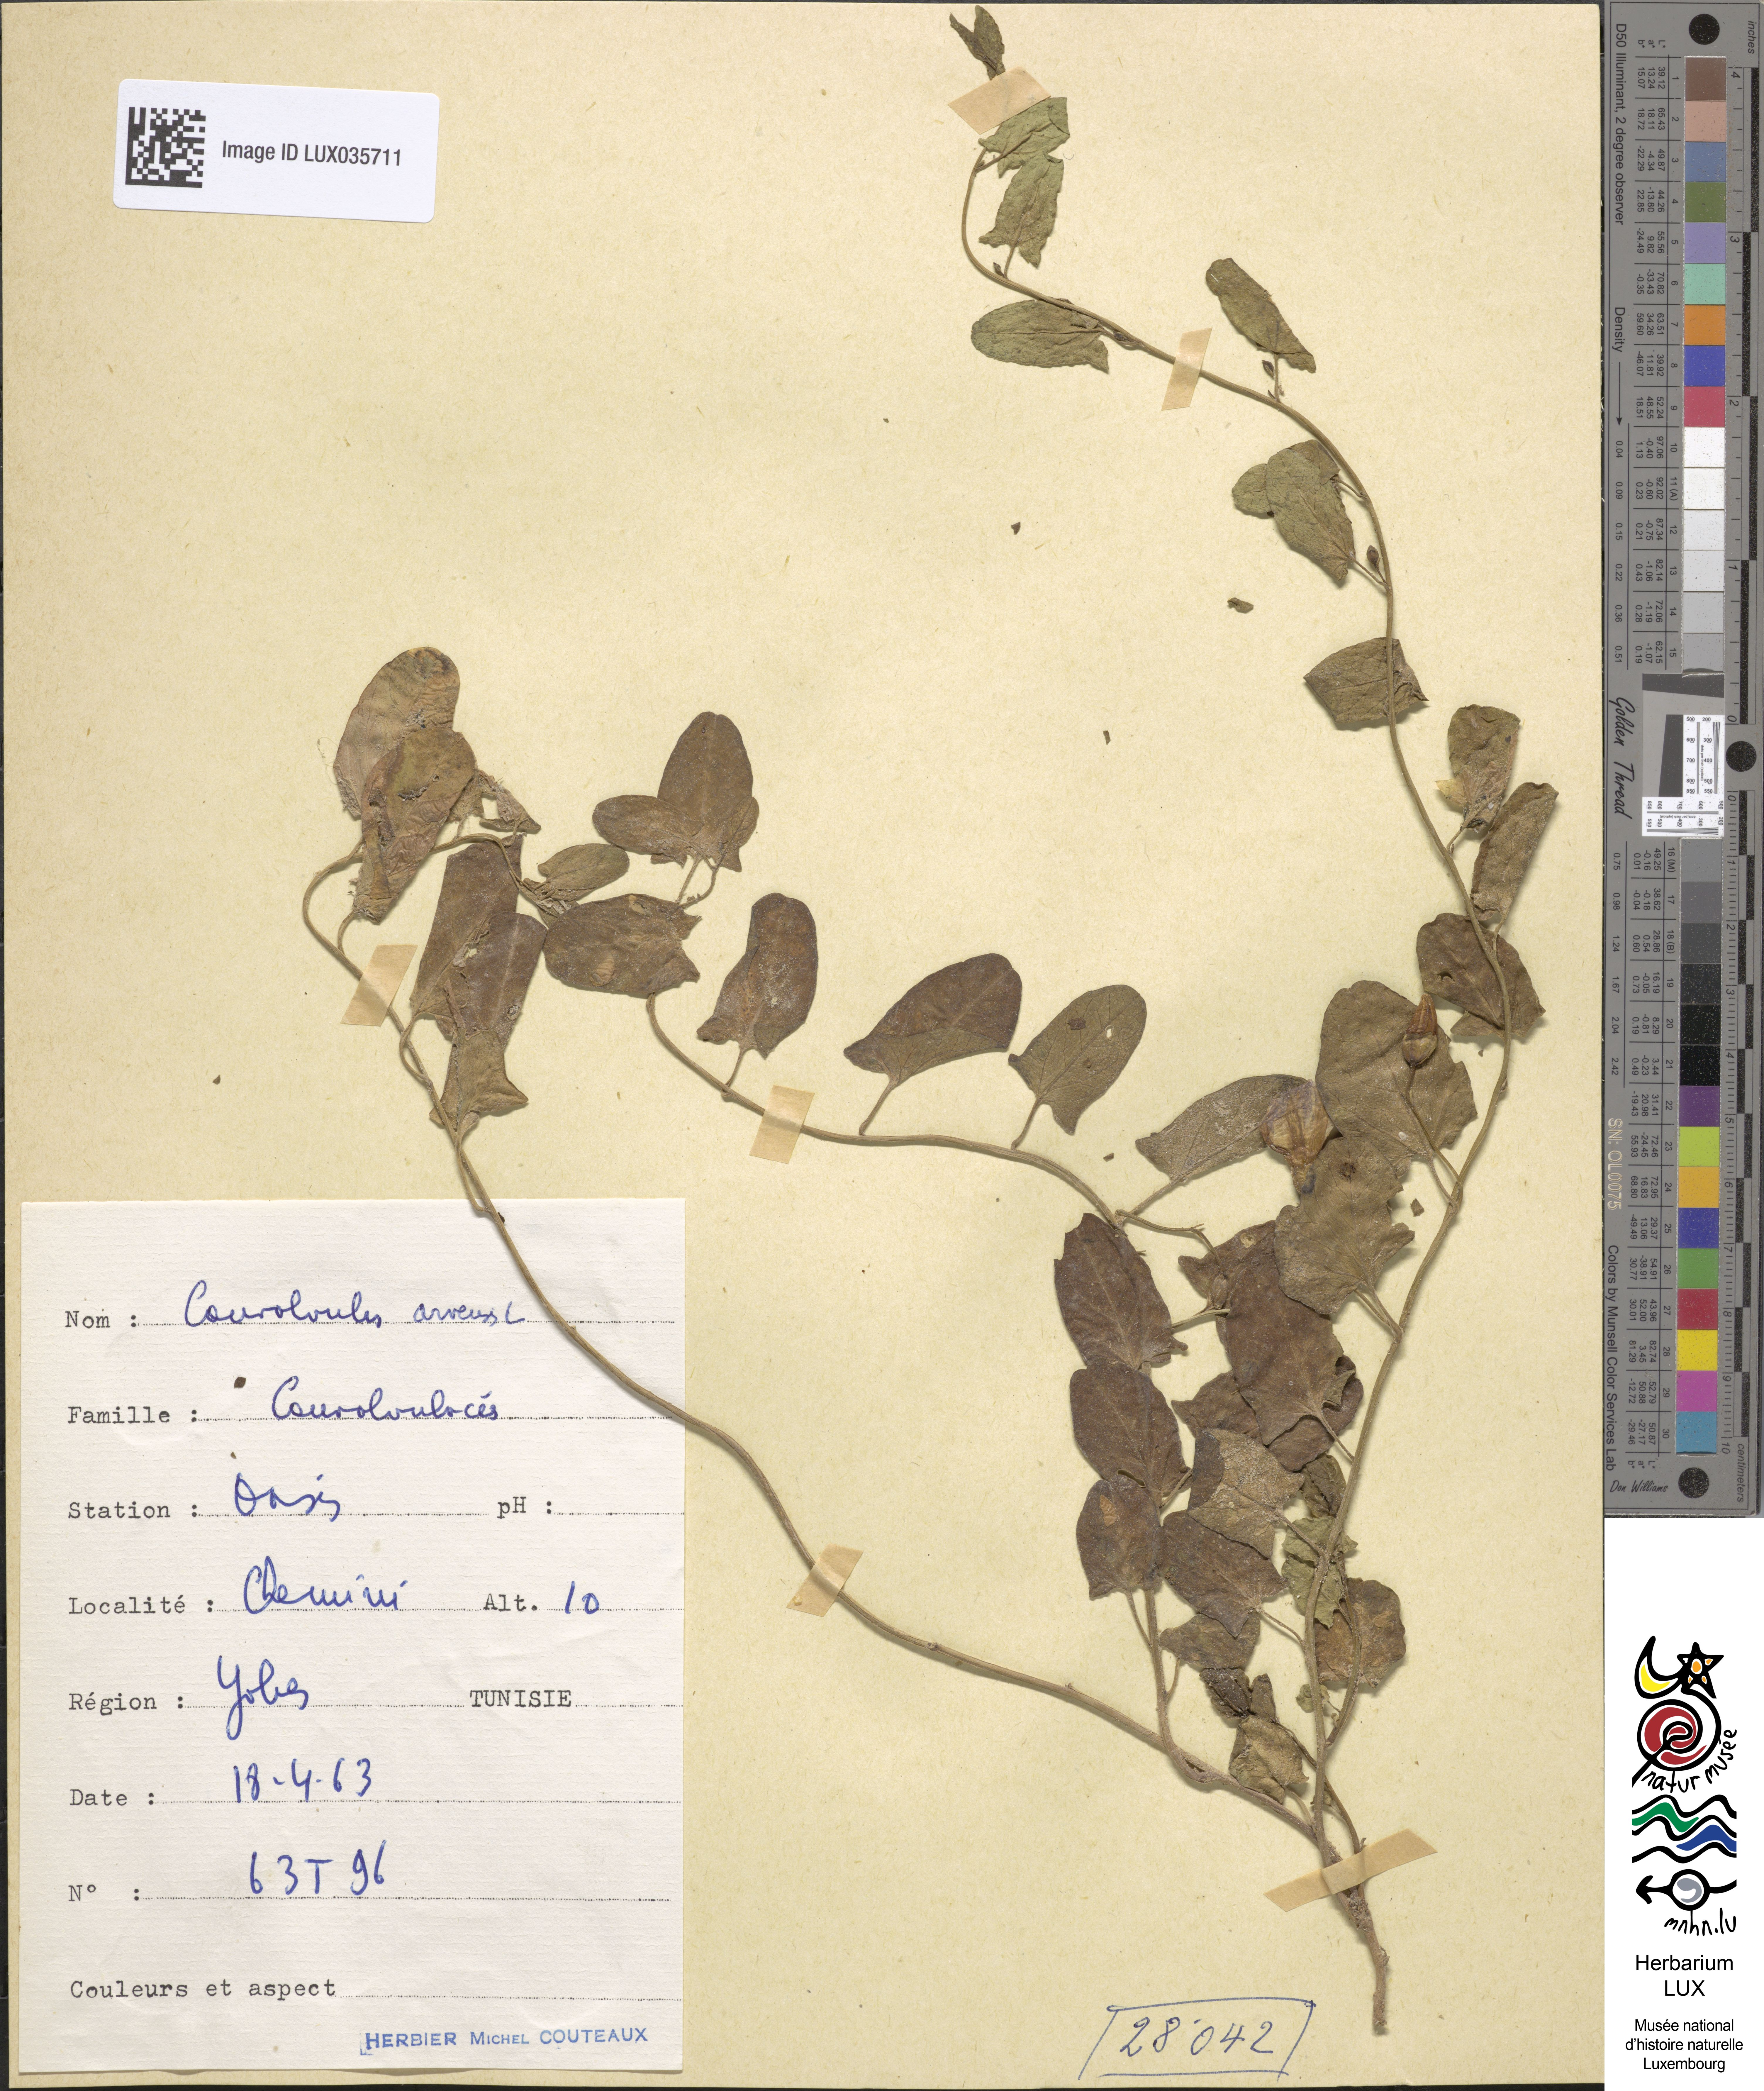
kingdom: Plantae
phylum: Tracheophyta
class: Magnoliopsida
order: Solanales
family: Convolvulaceae
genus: Convolvulus
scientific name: Convolvulus arvensis
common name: Field bindweed
